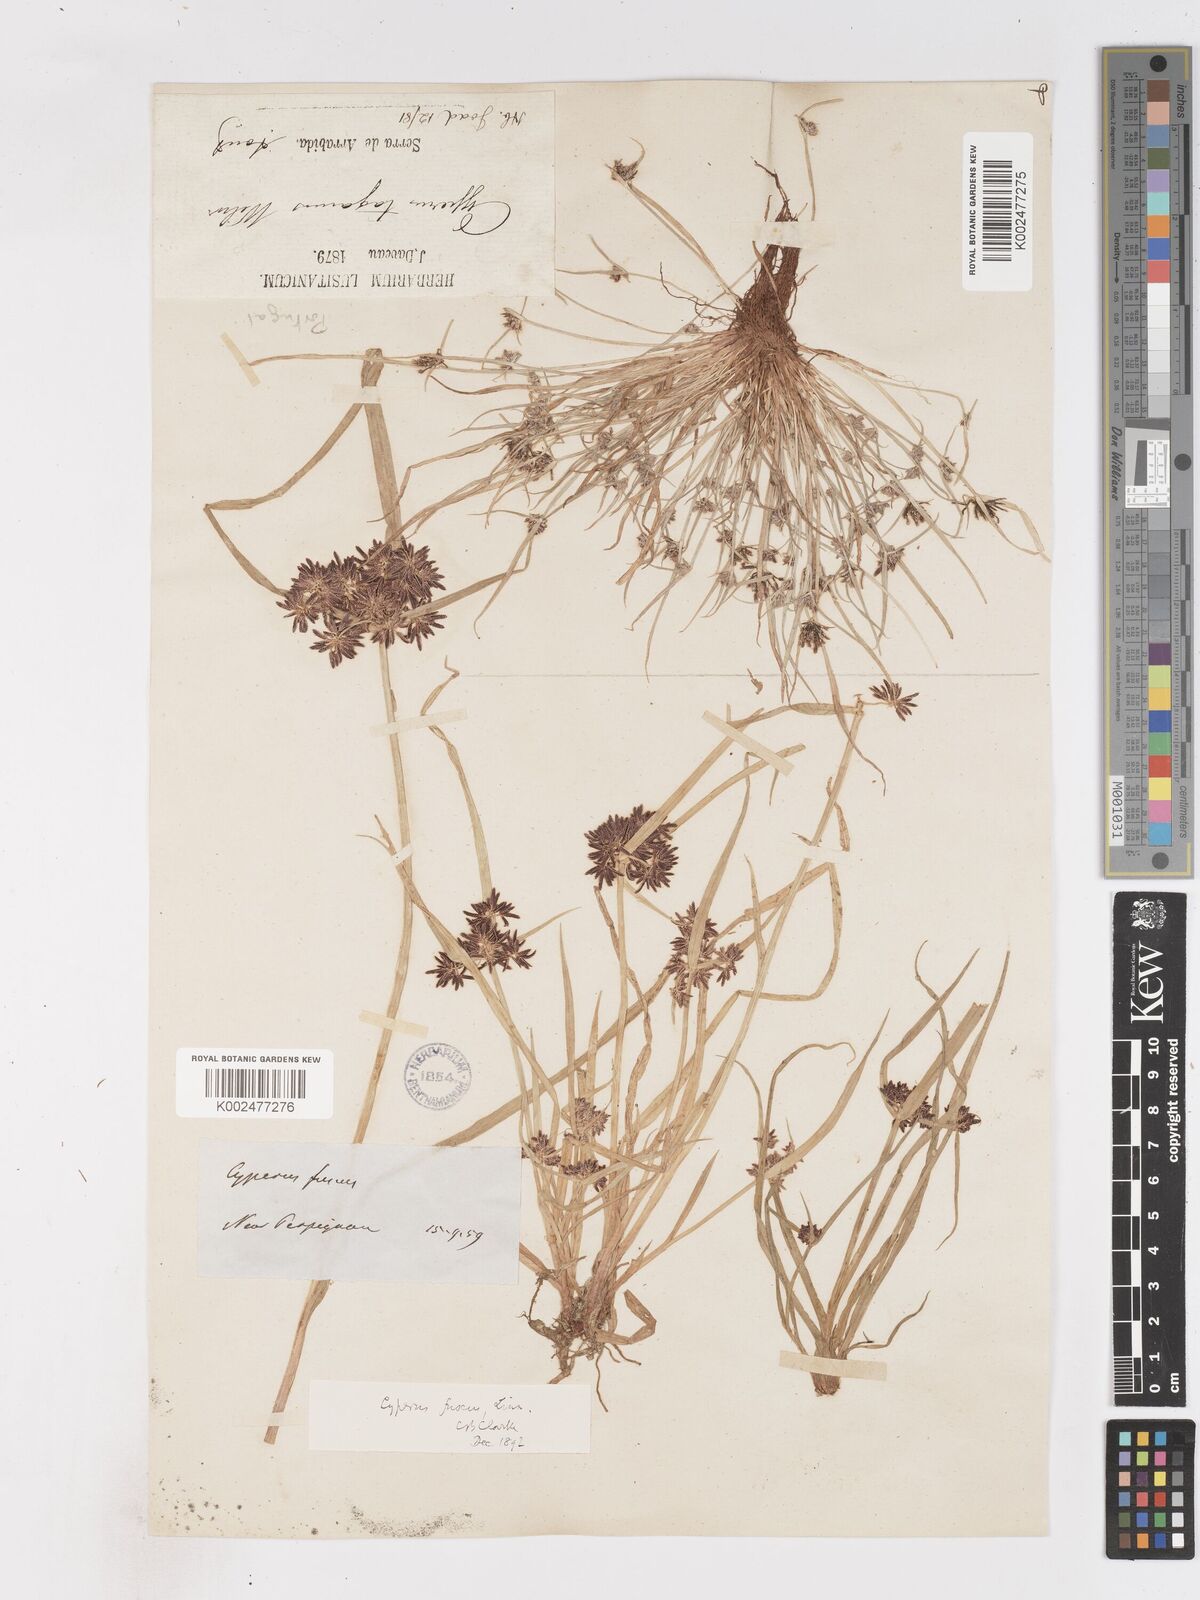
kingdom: Plantae
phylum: Tracheophyta
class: Liliopsida
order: Poales
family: Cyperaceae
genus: Cyperus
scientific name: Cyperus fuscus
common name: Brown galingale
